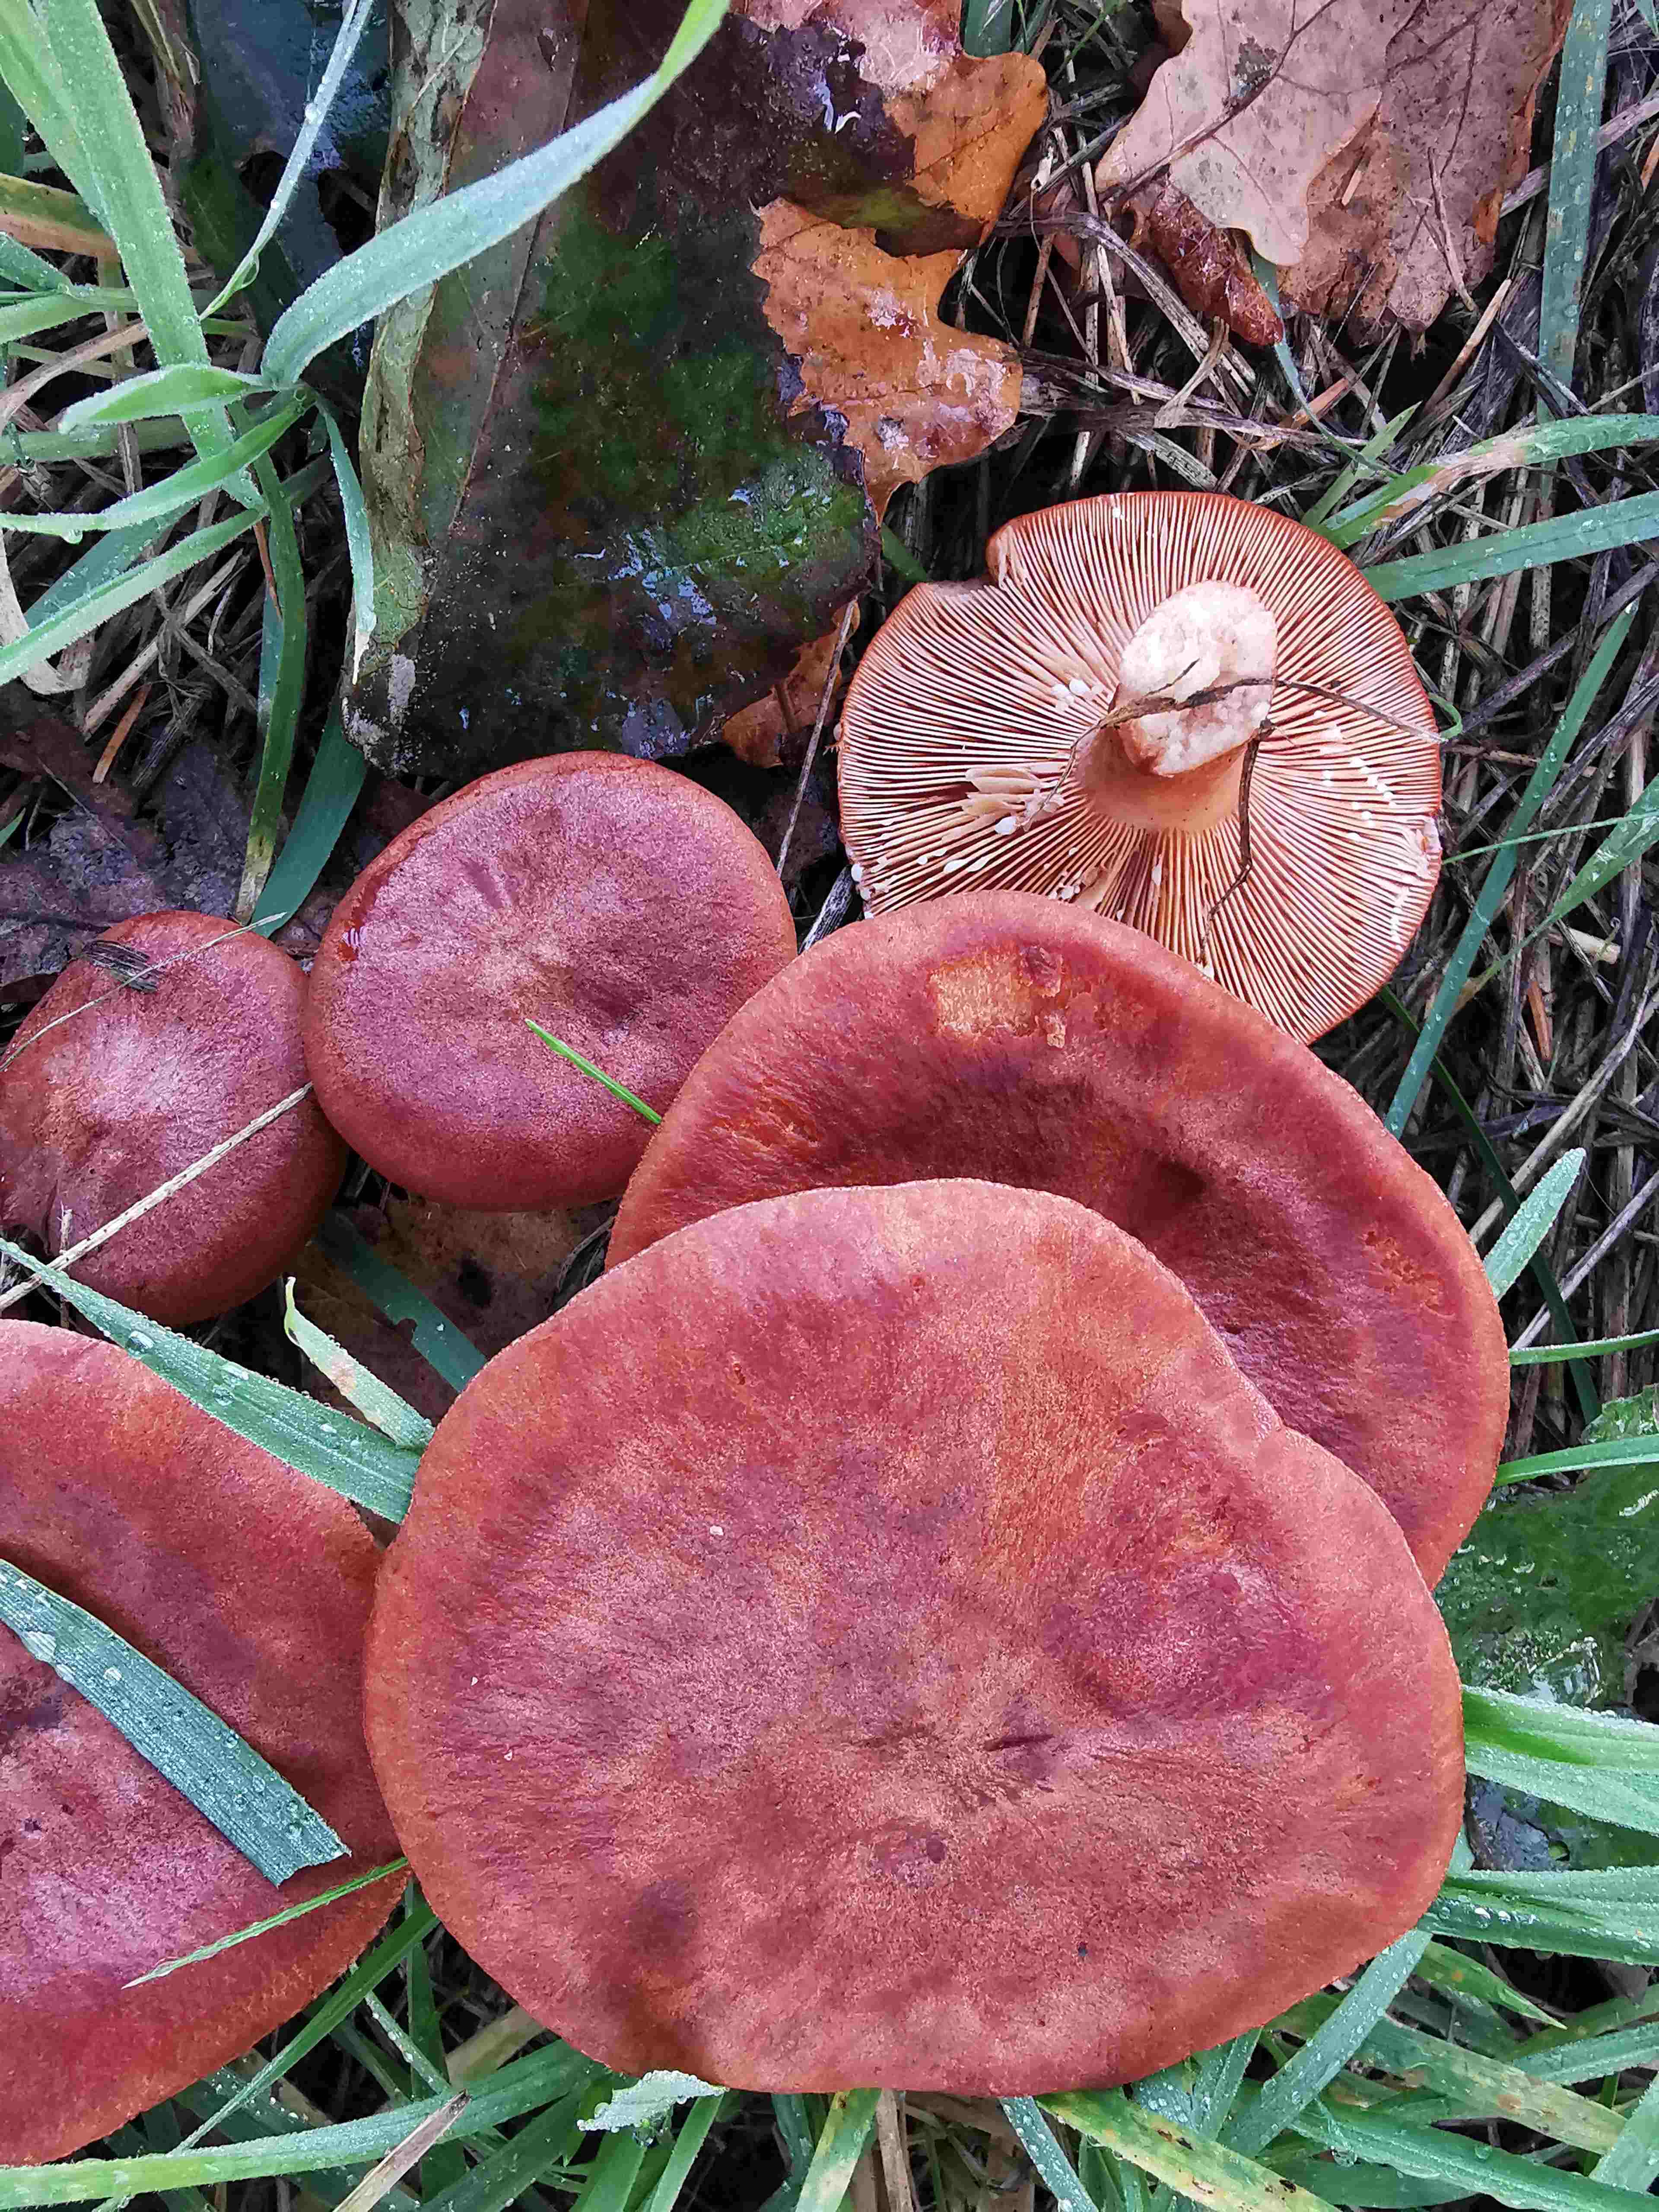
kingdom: Fungi
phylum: Basidiomycota
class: Agaricomycetes
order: Russulales
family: Russulaceae
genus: Lactarius
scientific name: Lactarius rufus
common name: rødbrun mælkehat
